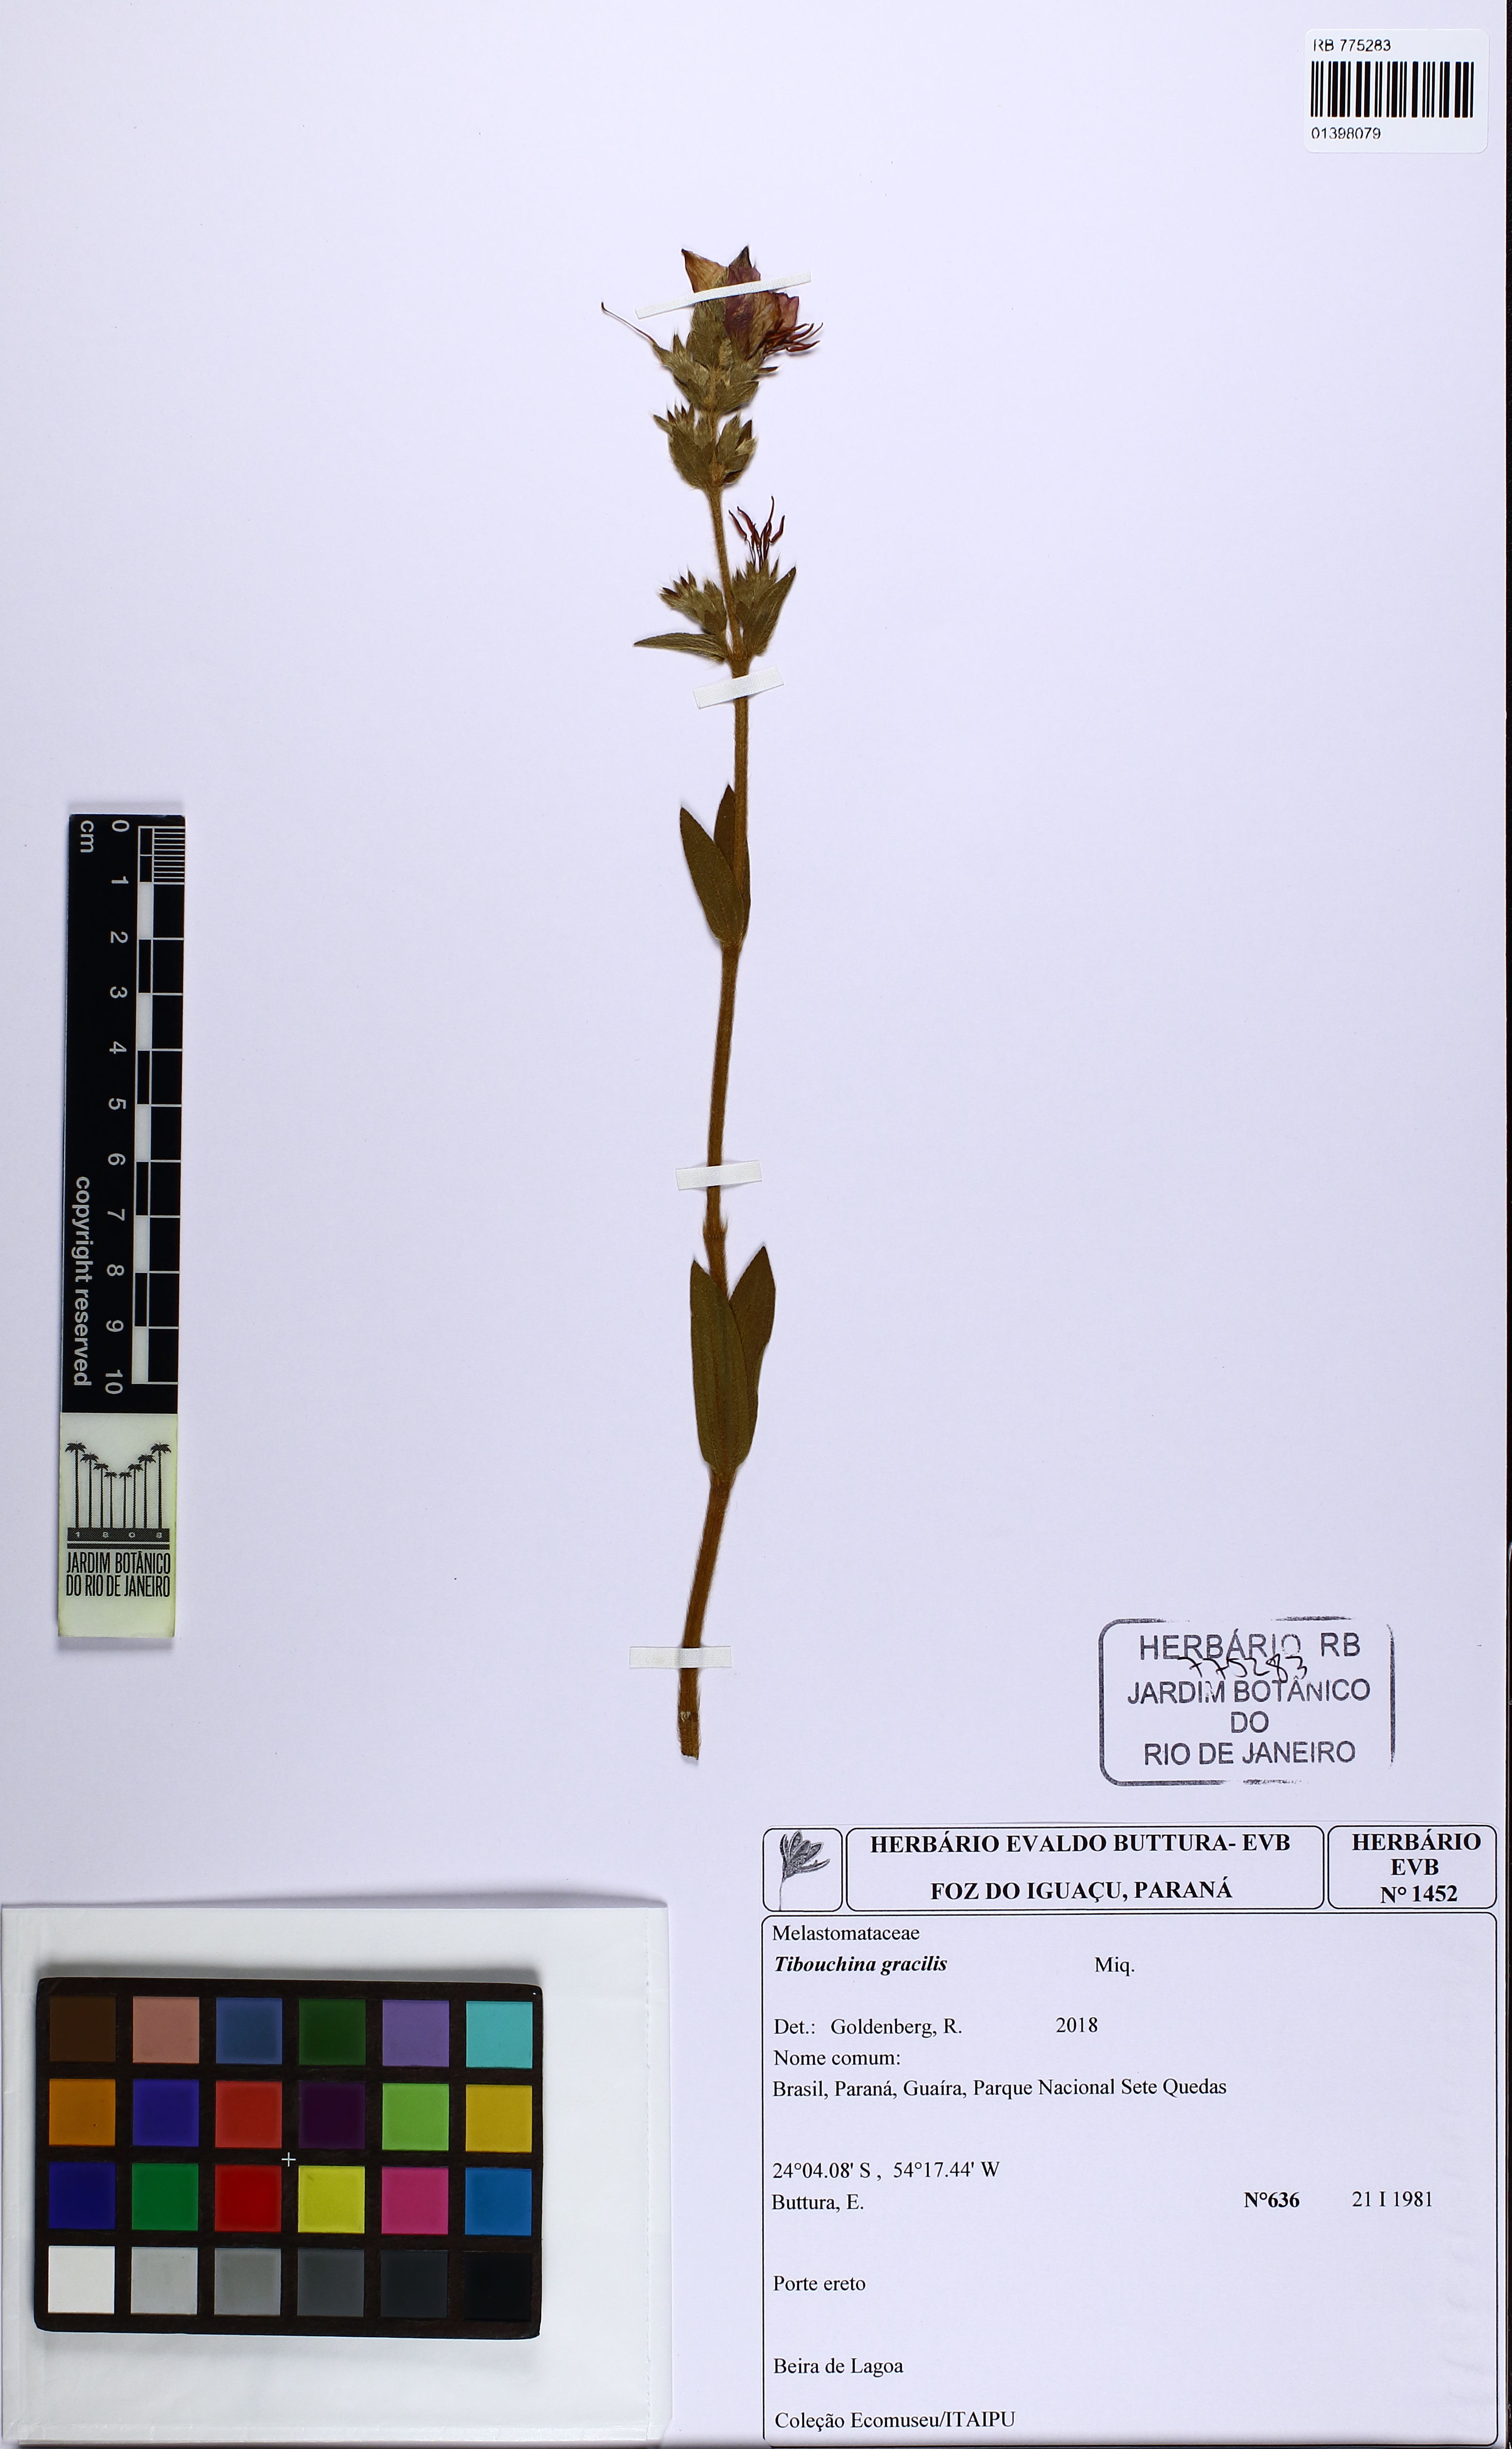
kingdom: Plantae
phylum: Tracheophyta
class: Magnoliopsida
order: Myrtales
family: Melastomataceae
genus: Chaetogastra
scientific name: Chaetogastra gracilis
